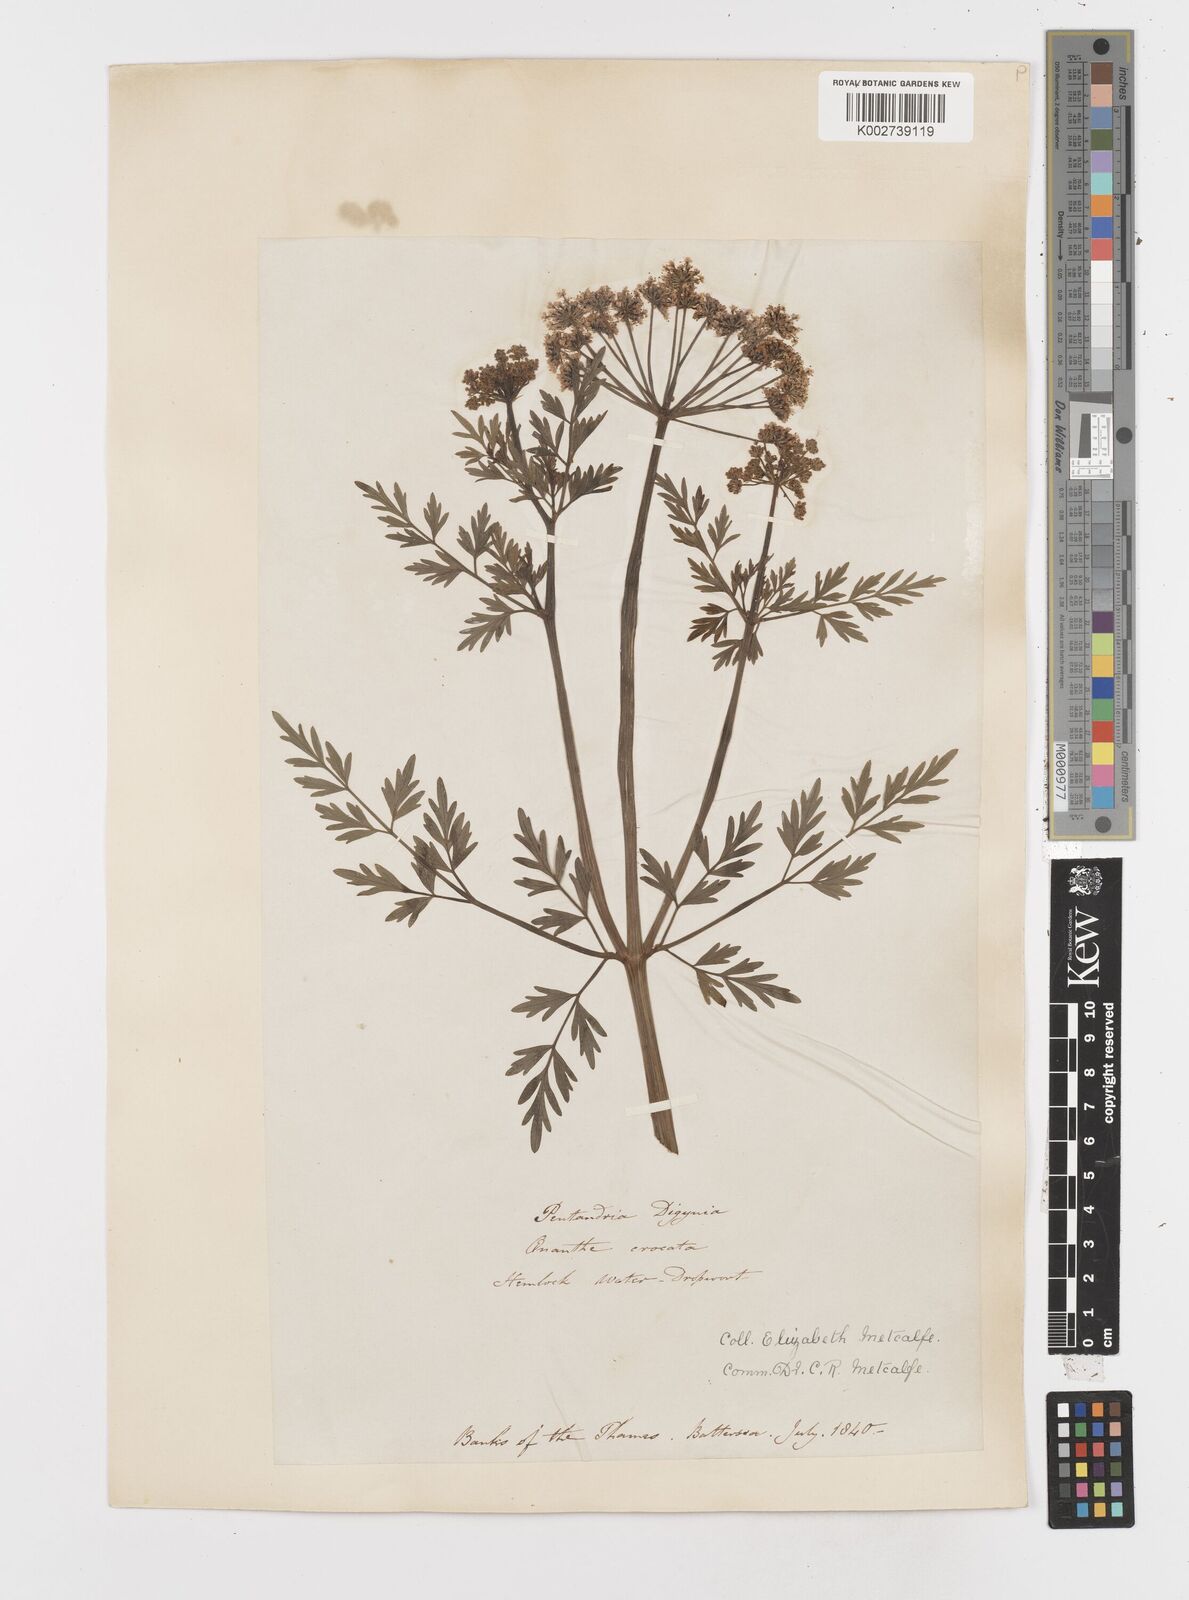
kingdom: Plantae
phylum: Tracheophyta
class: Magnoliopsida
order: Apiales
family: Apiaceae
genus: Oenanthe
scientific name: Oenanthe crocata
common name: Hemlock water-dropwort
